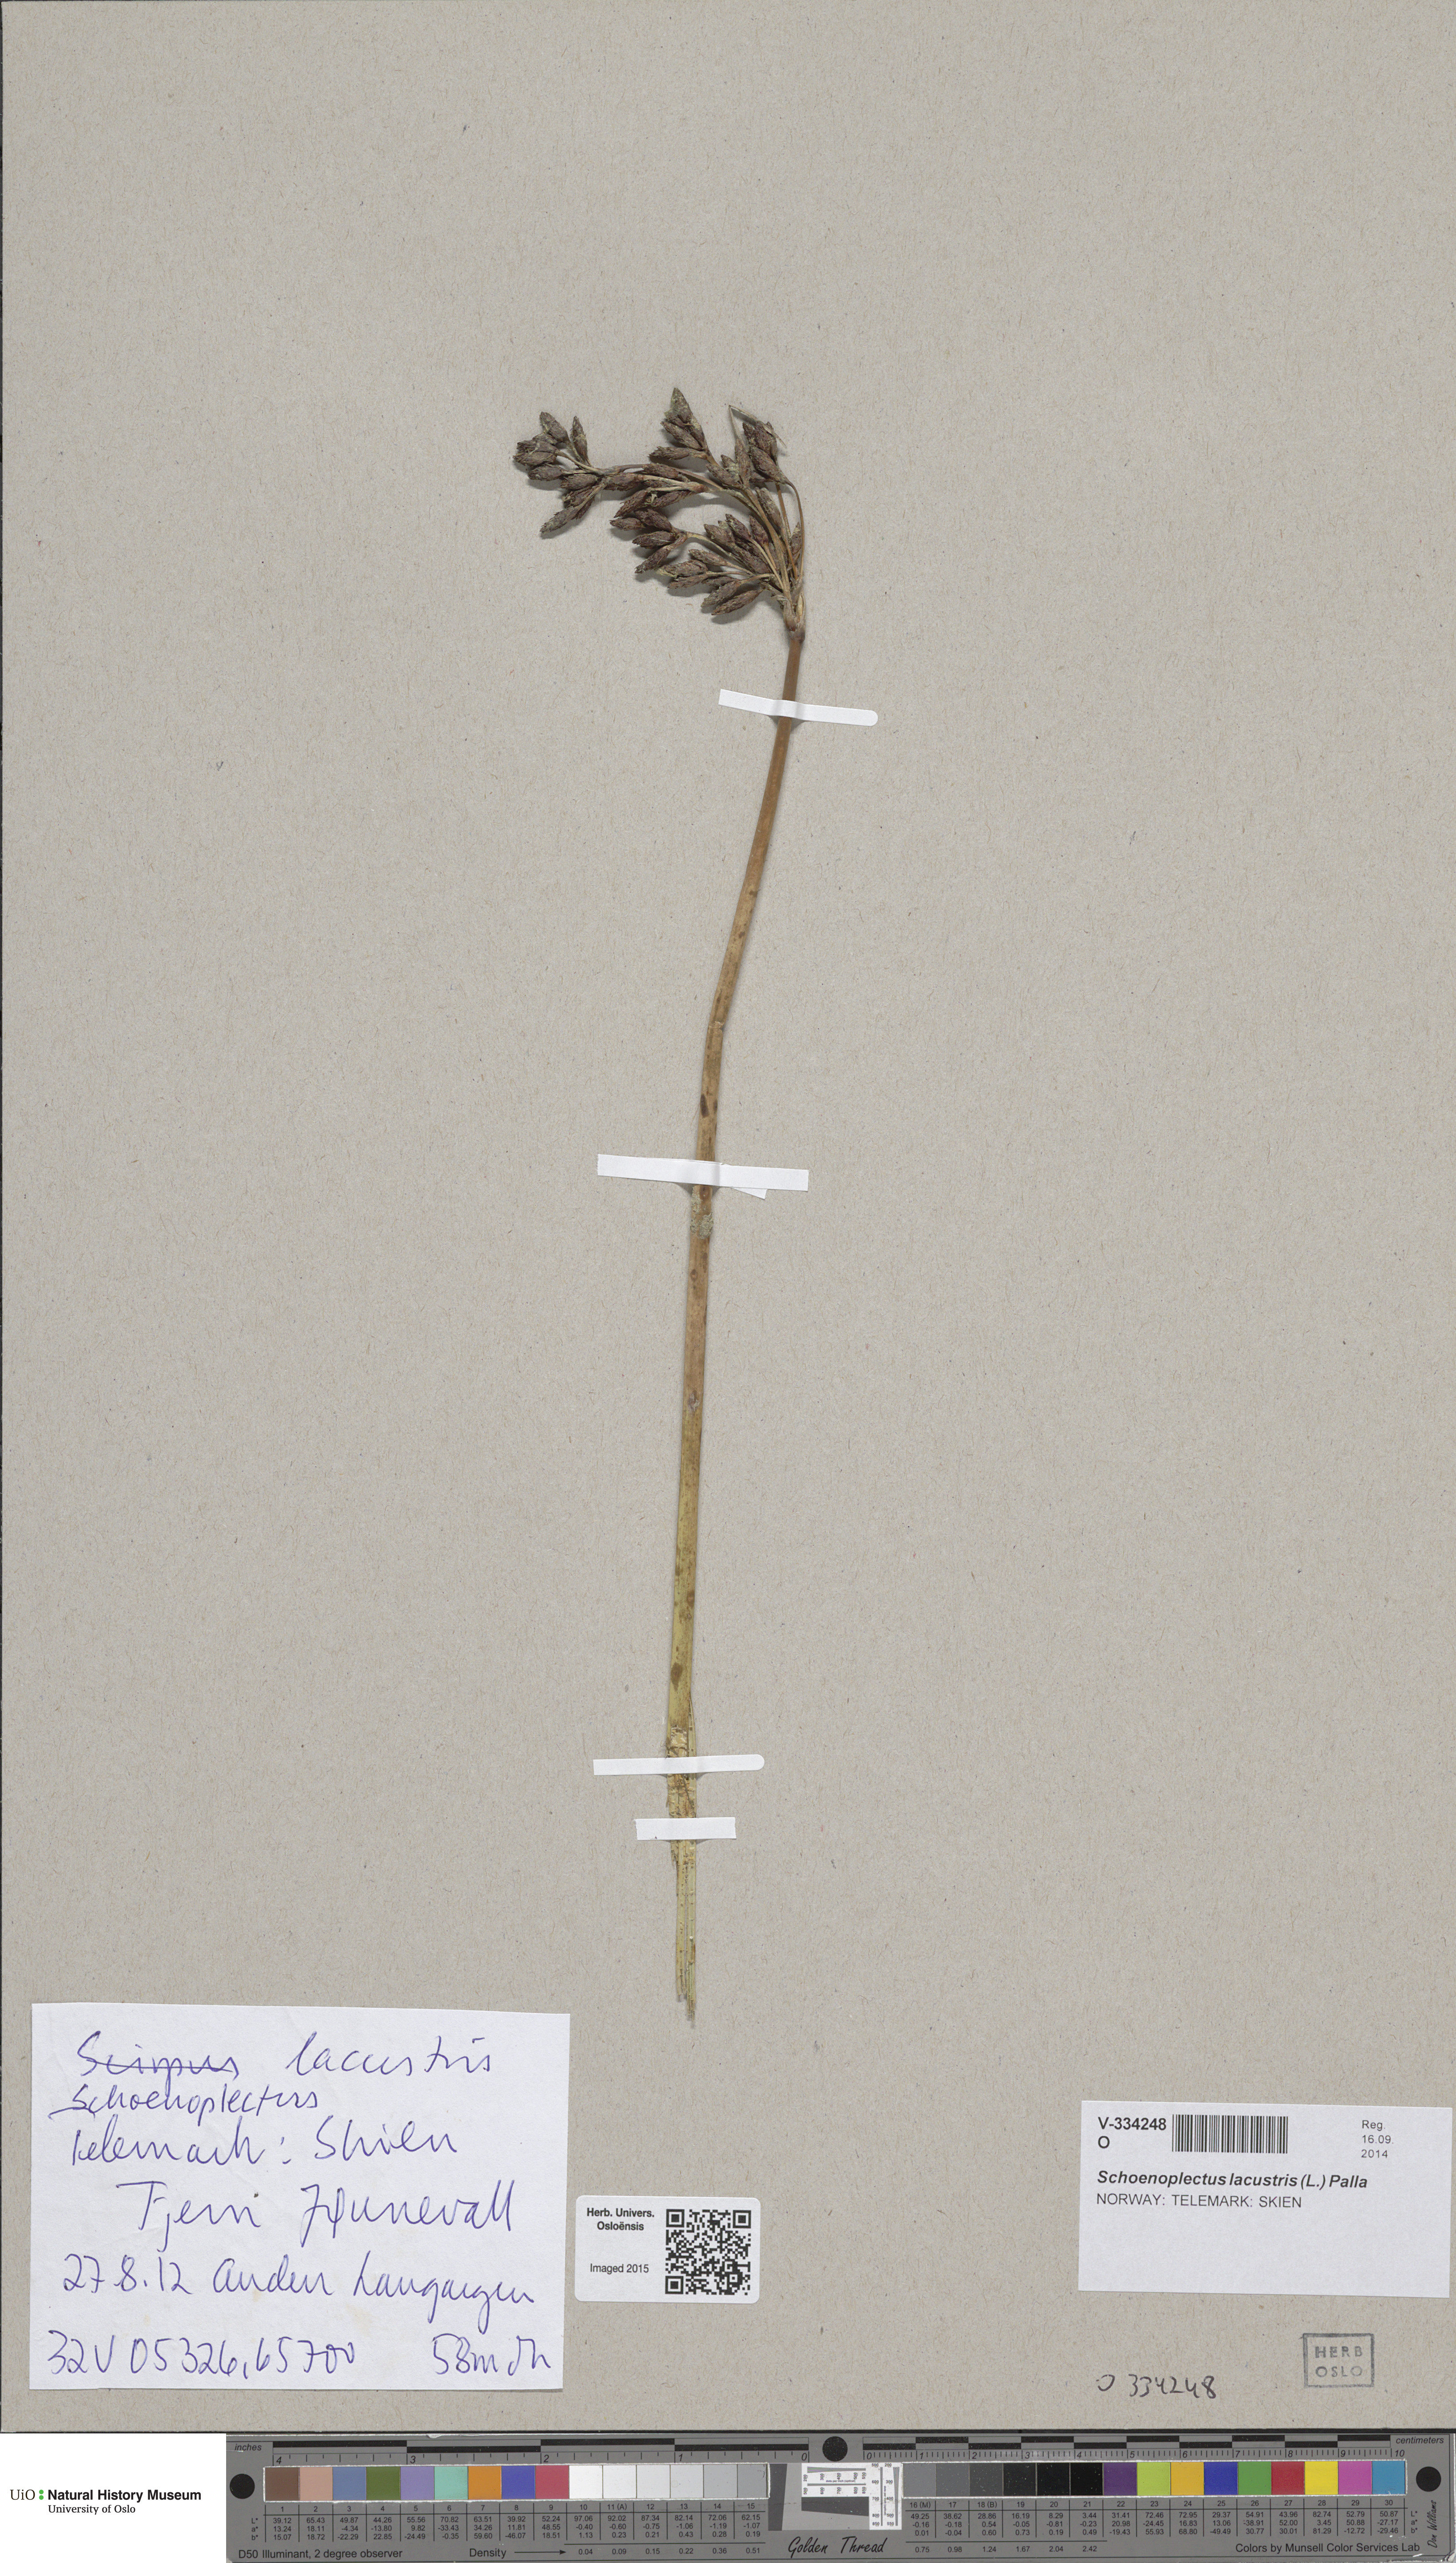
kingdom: Plantae
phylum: Tracheophyta
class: Liliopsida
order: Poales
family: Cyperaceae
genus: Schoenoplectus
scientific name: Schoenoplectus lacustris
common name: Common club-rush
